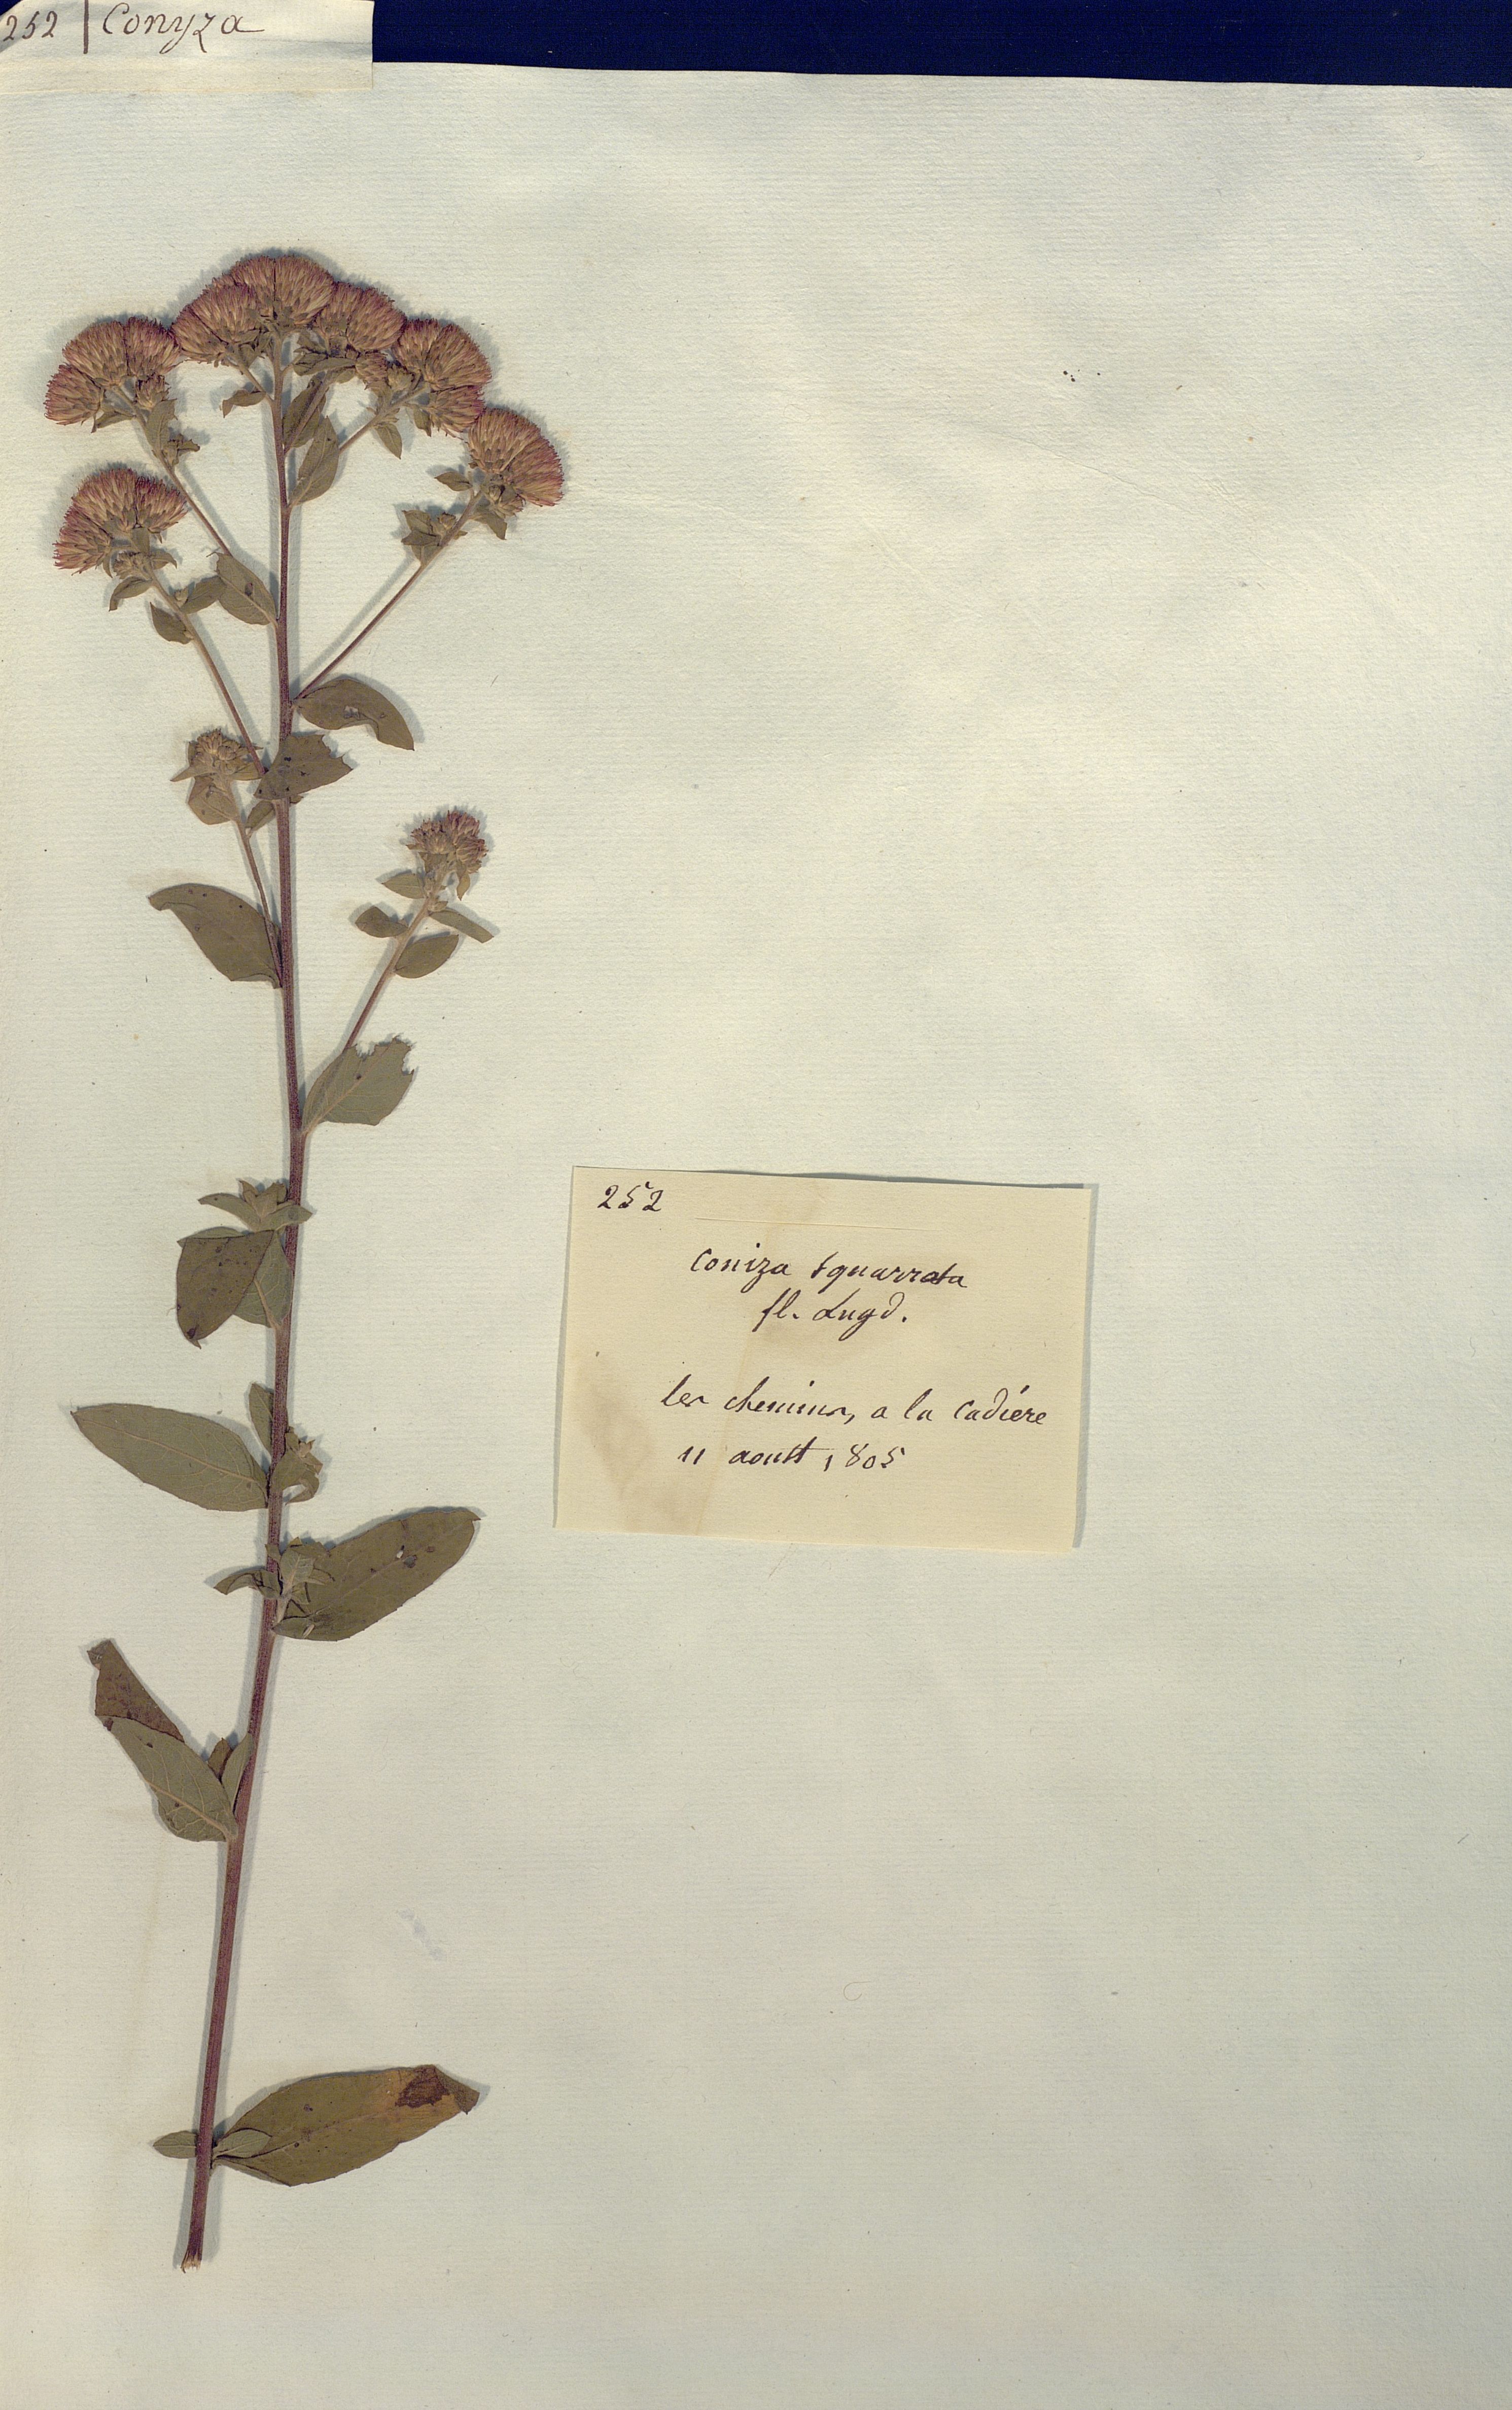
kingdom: Plantae
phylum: Tracheophyta
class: Magnoliopsida
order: Asterales
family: Asteraceae
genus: Conyza
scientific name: Conyza squarrosa
